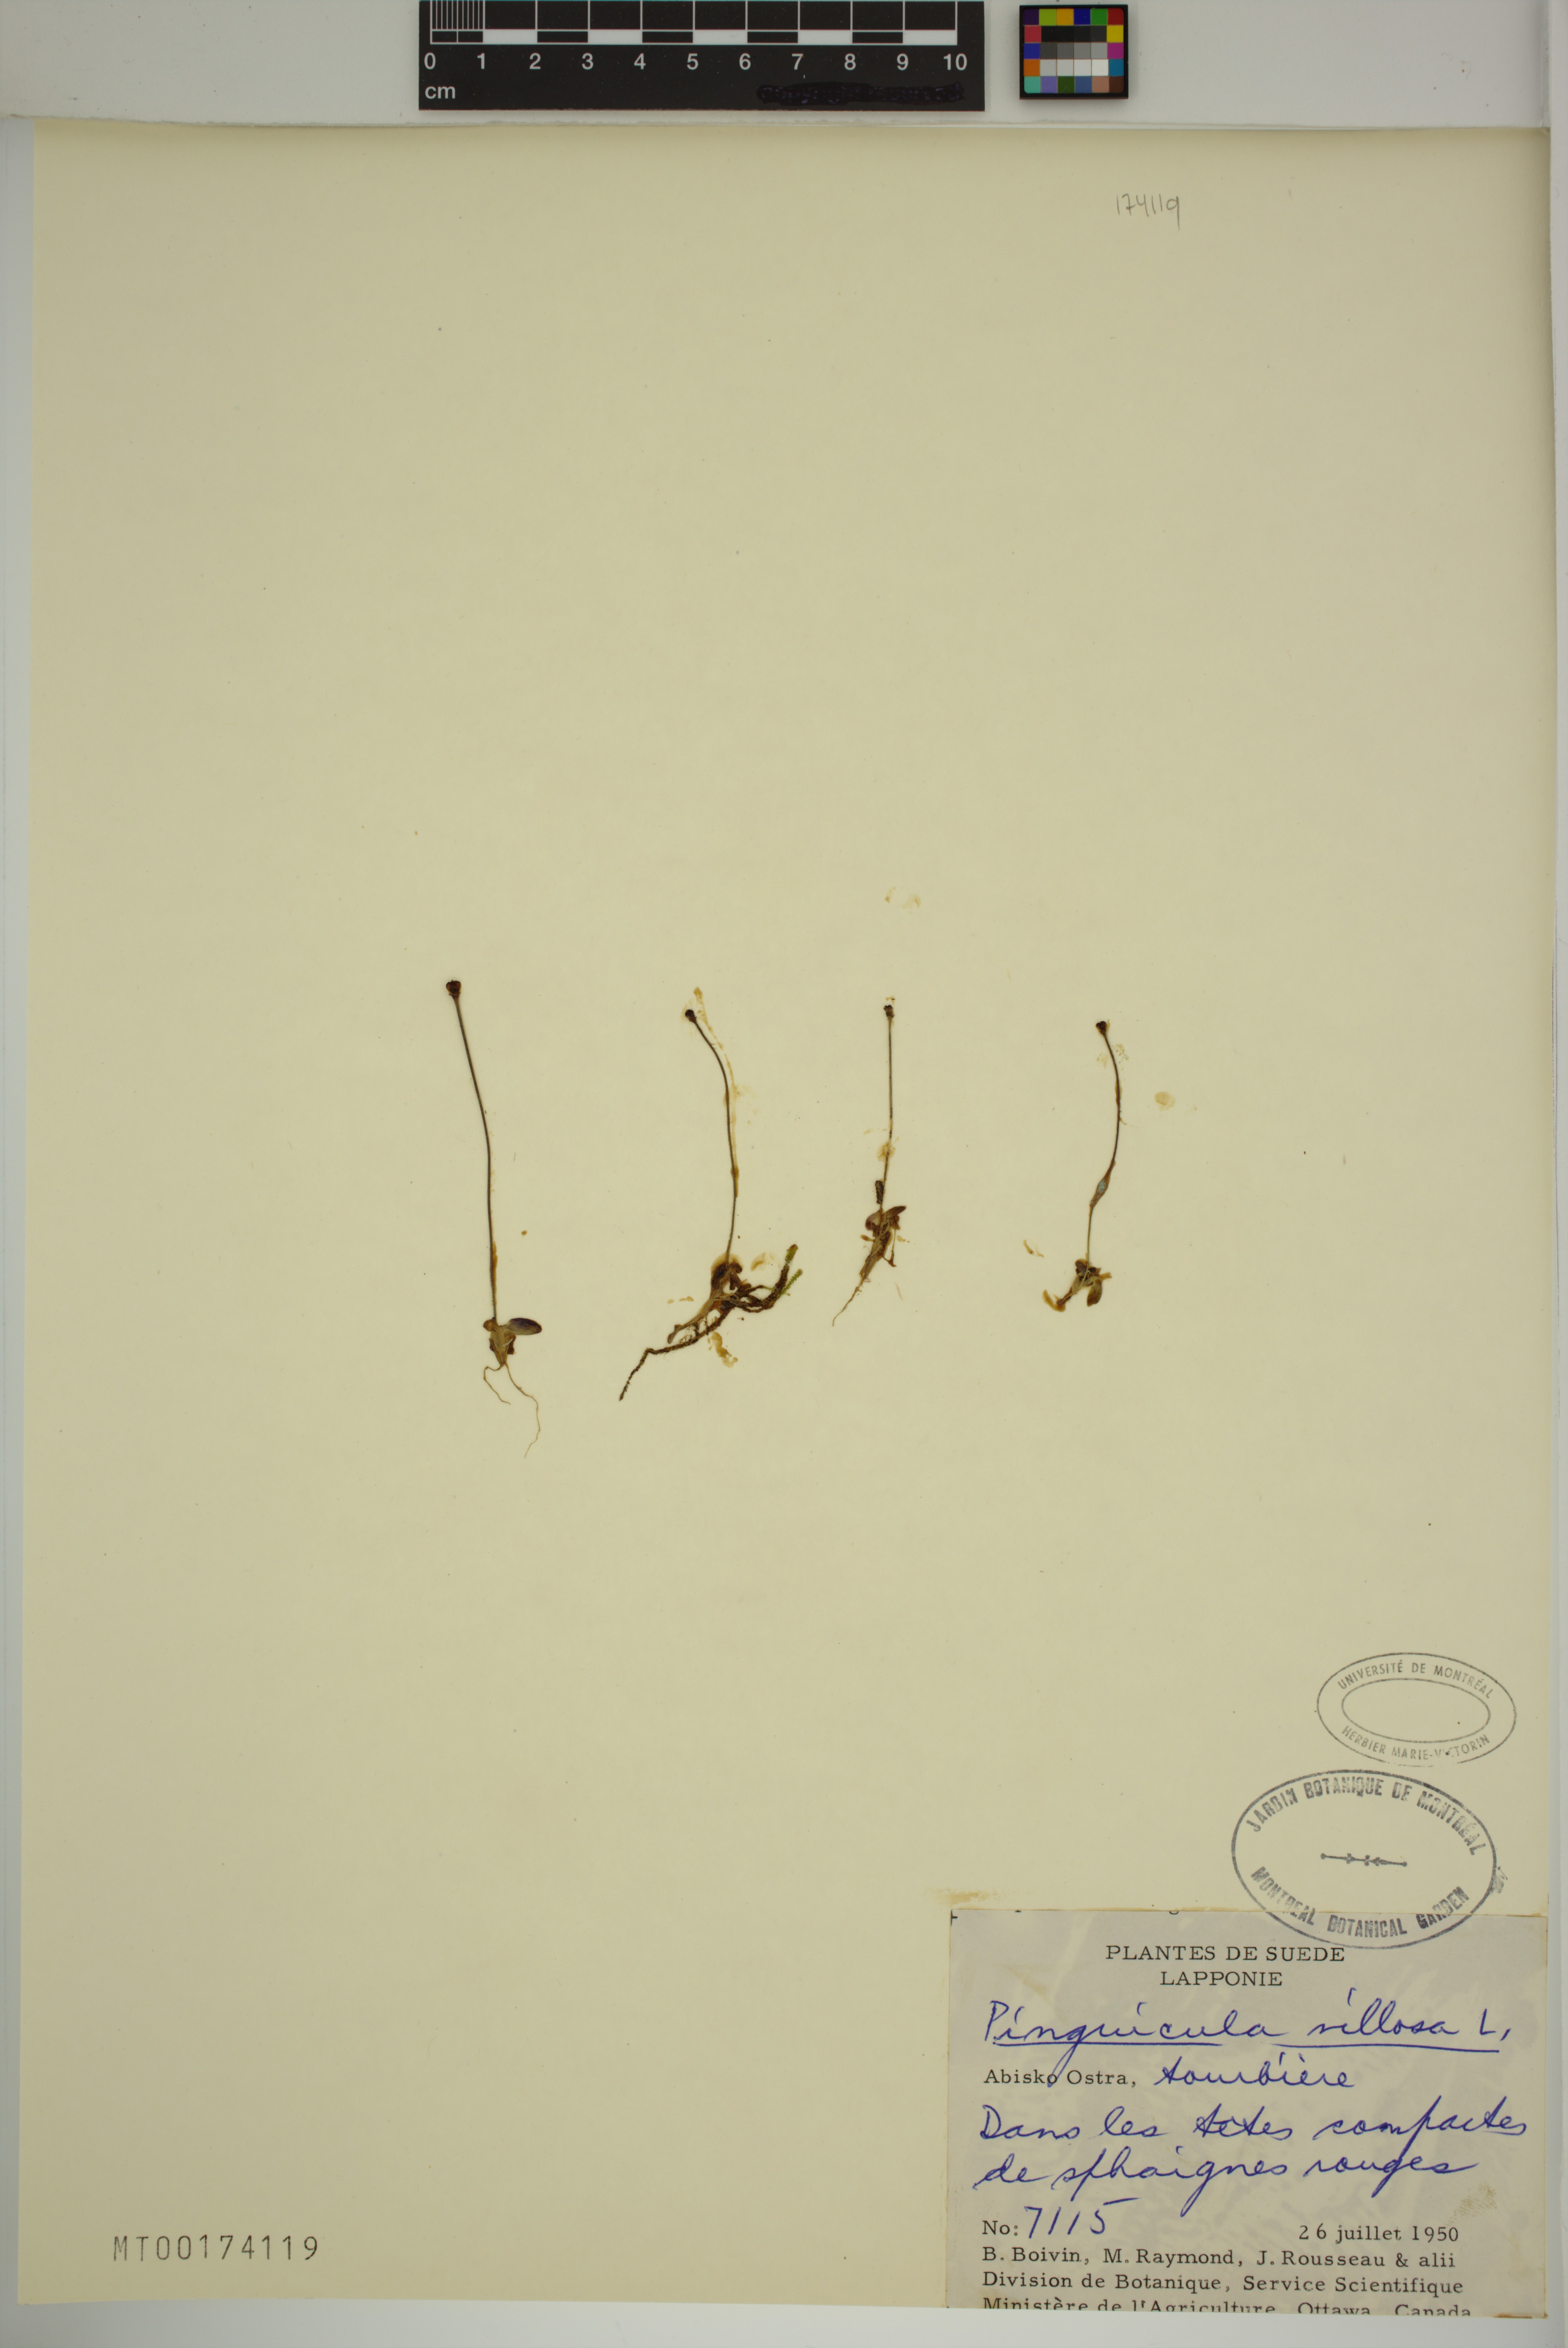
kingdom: Plantae
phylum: Tracheophyta
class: Magnoliopsida
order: Lamiales
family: Lentibulariaceae
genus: Pinguicula
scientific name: Pinguicula villosa
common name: Hairy butterwort
